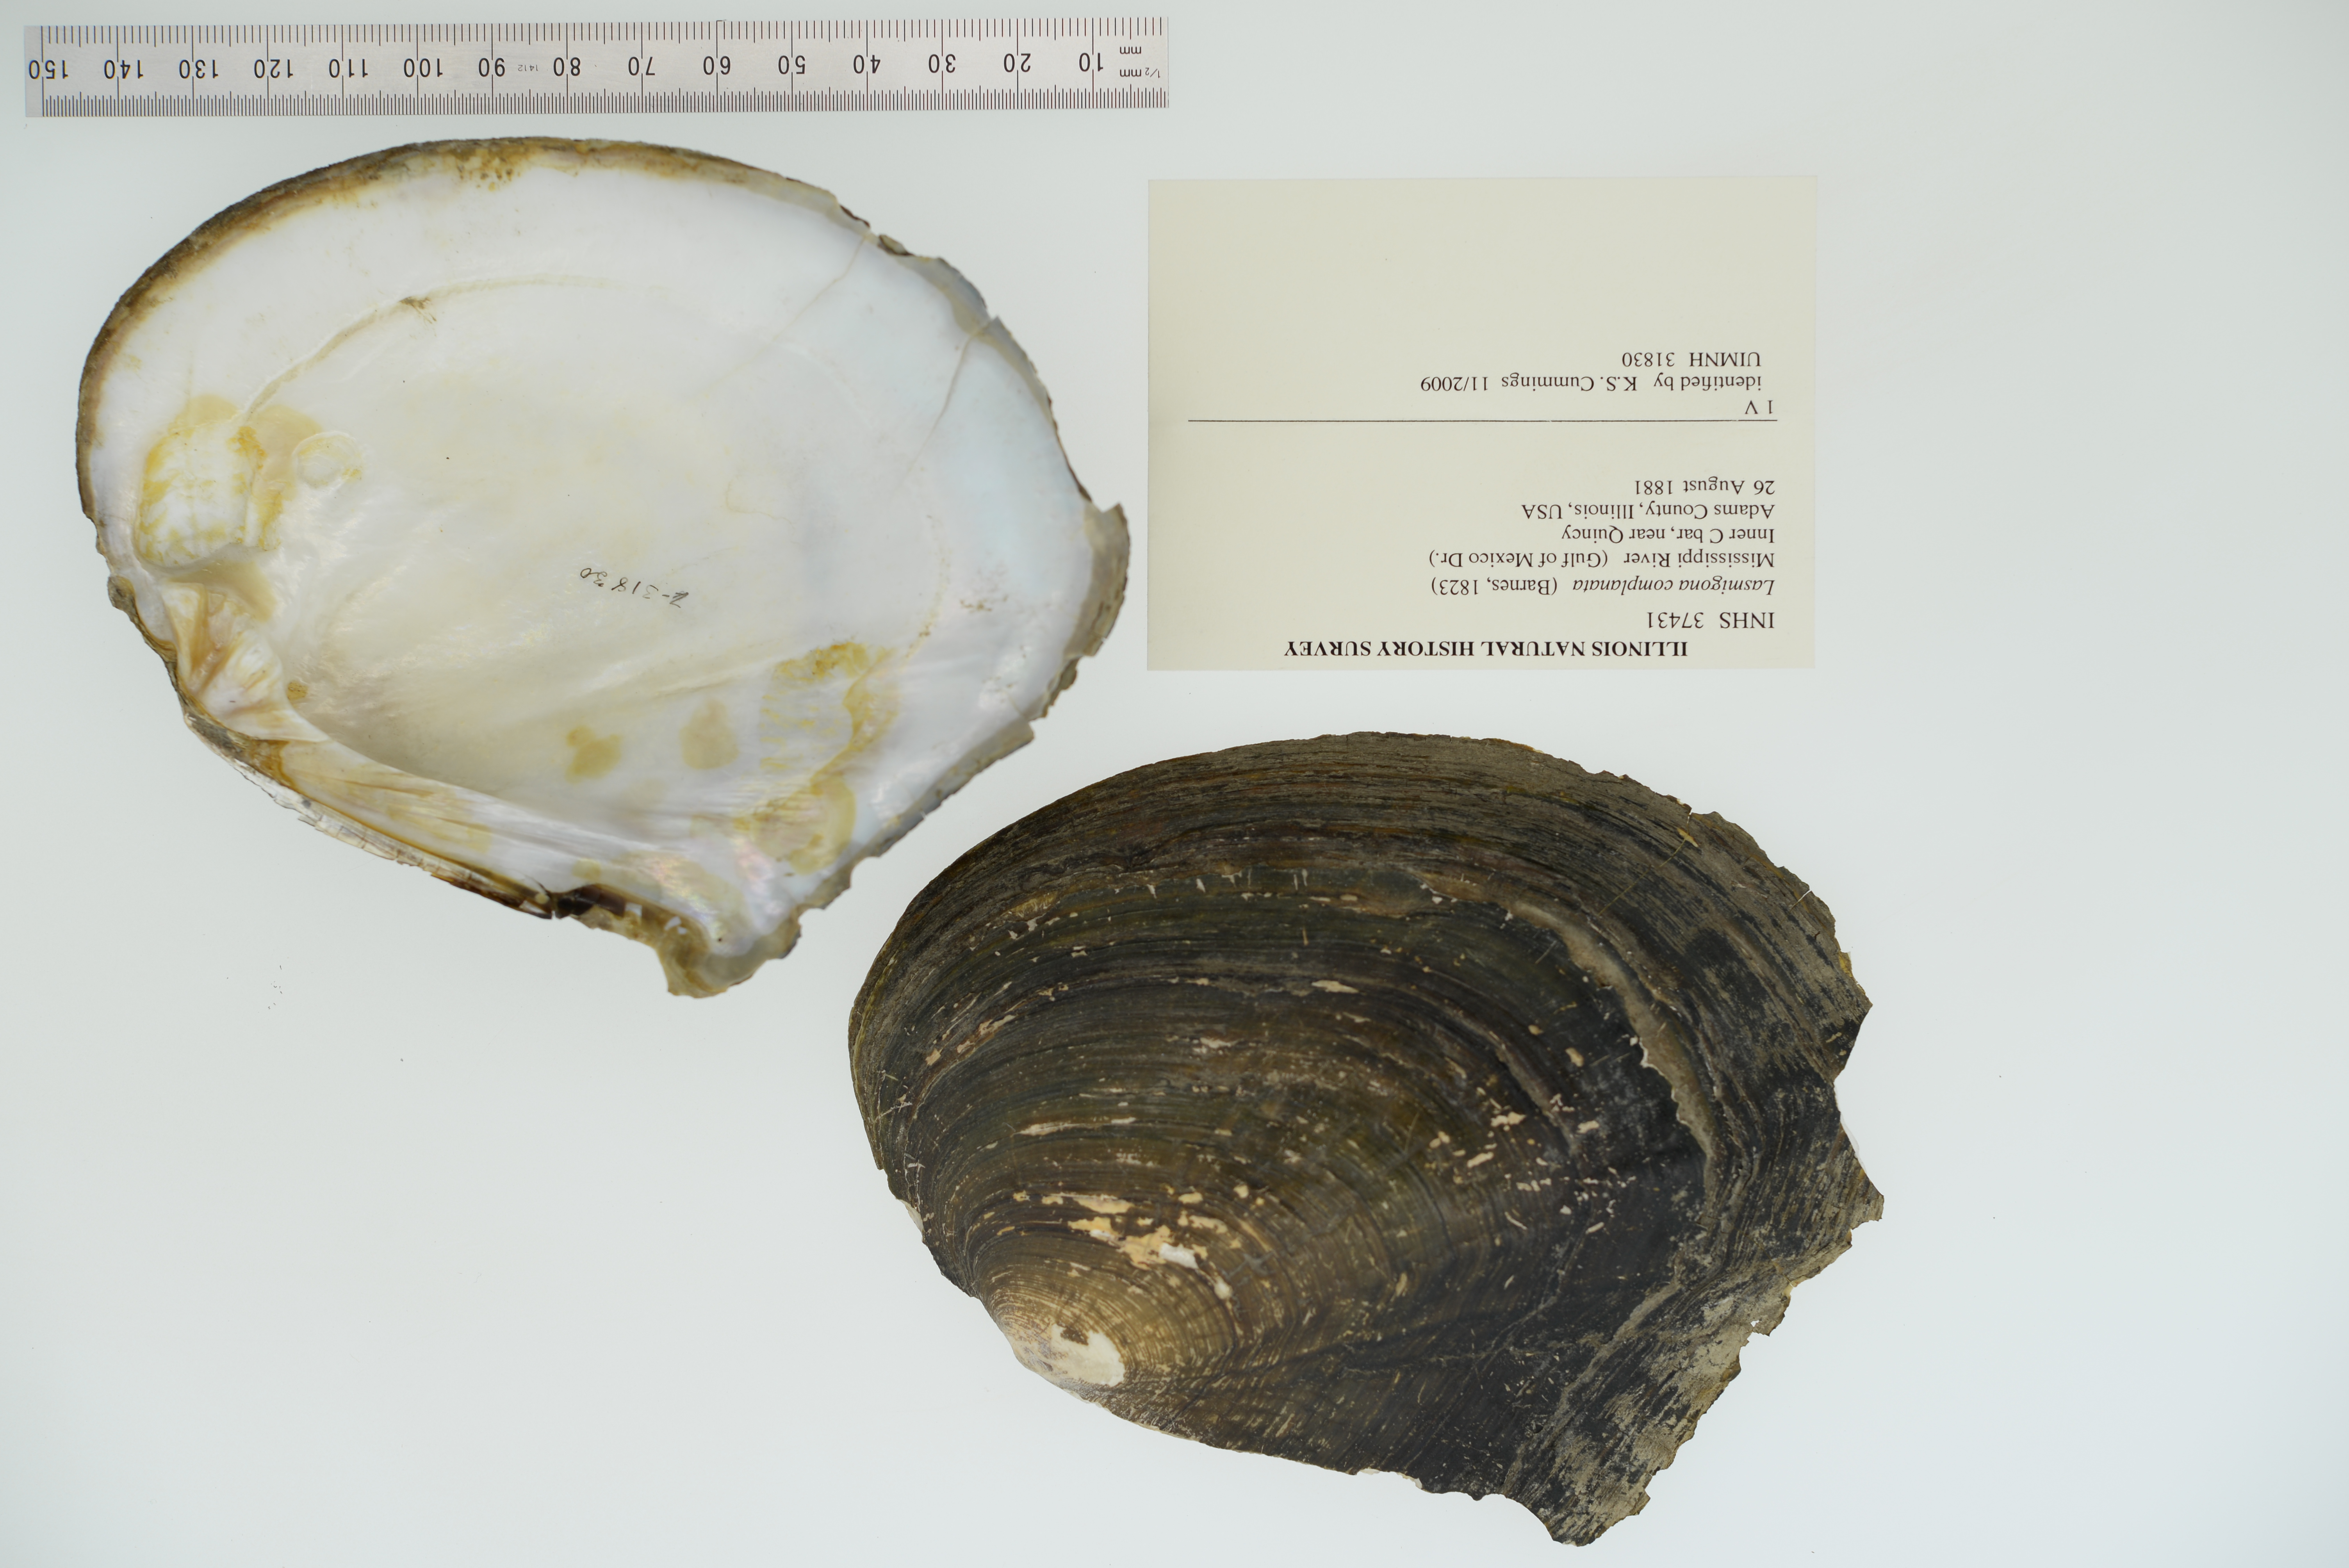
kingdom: Animalia
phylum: Mollusca
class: Bivalvia
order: Unionida
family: Unionidae
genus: Lasmigona
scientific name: Lasmigona complanata
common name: White heelsplitter
